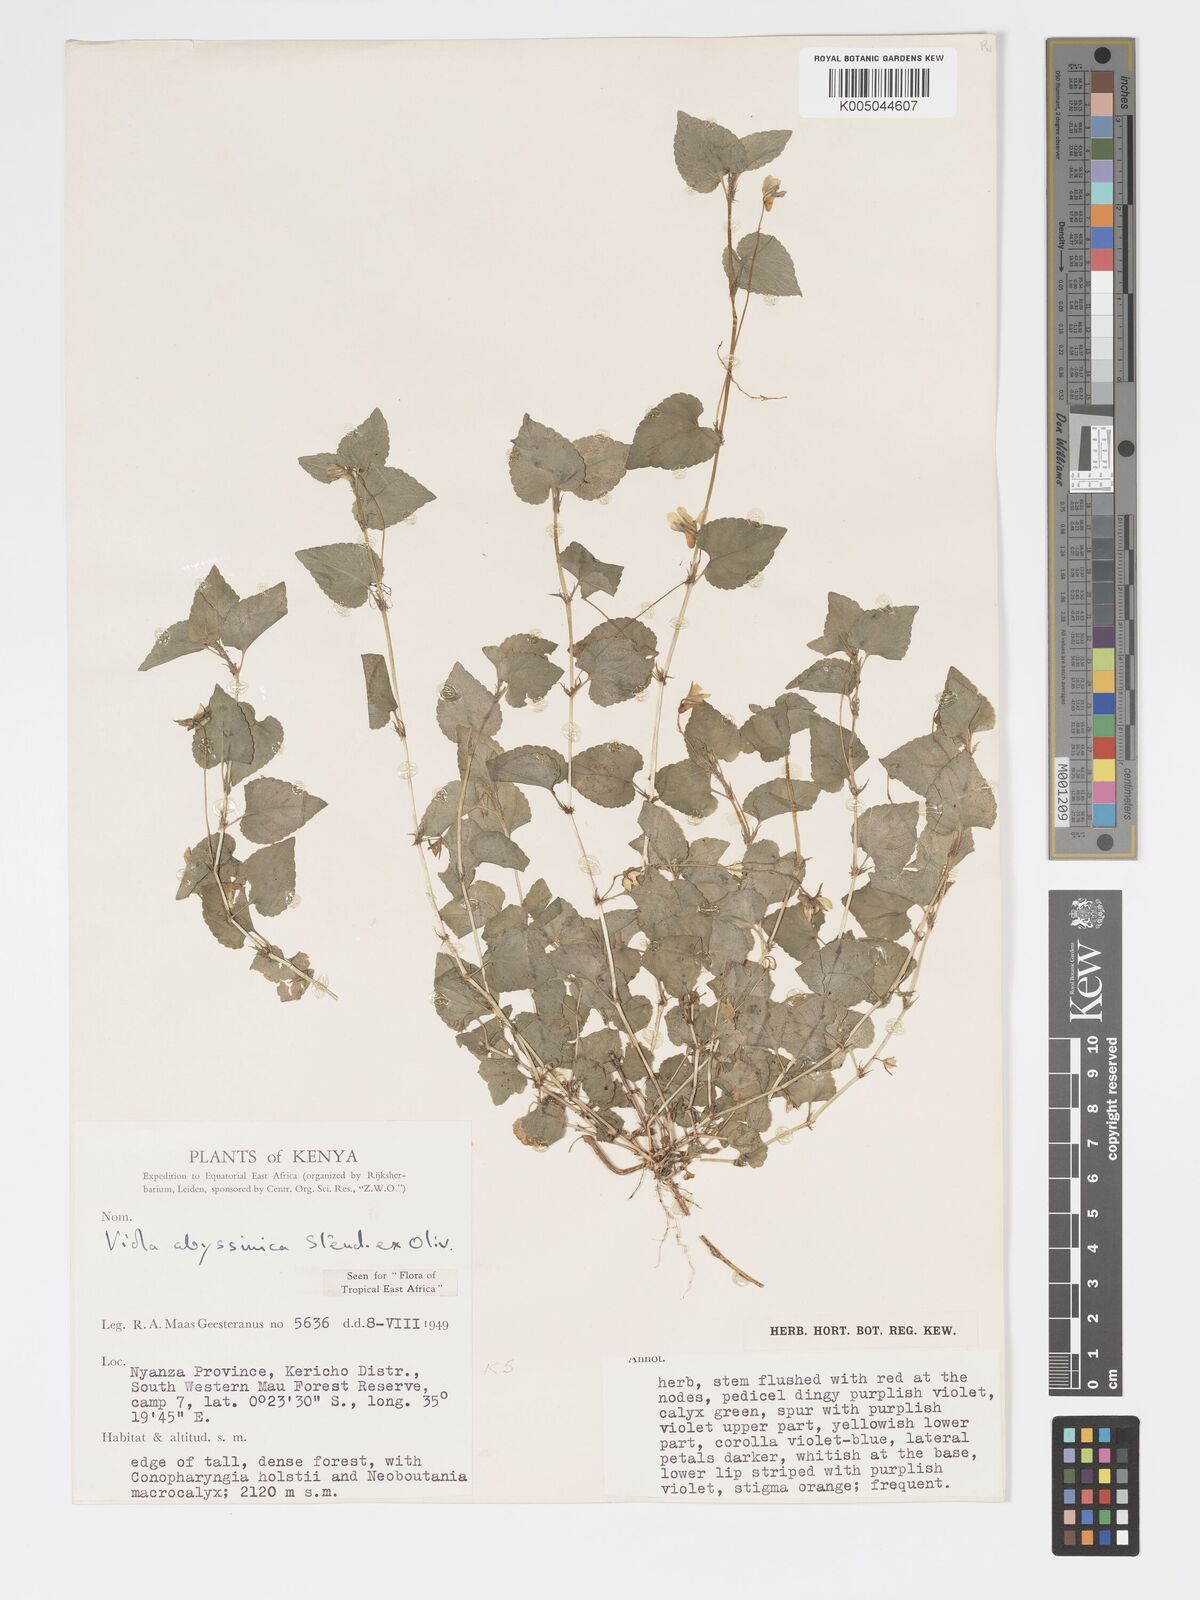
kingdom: Plantae
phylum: Tracheophyta
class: Magnoliopsida
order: Malpighiales
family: Violaceae
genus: Viola
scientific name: Viola abyssinica
